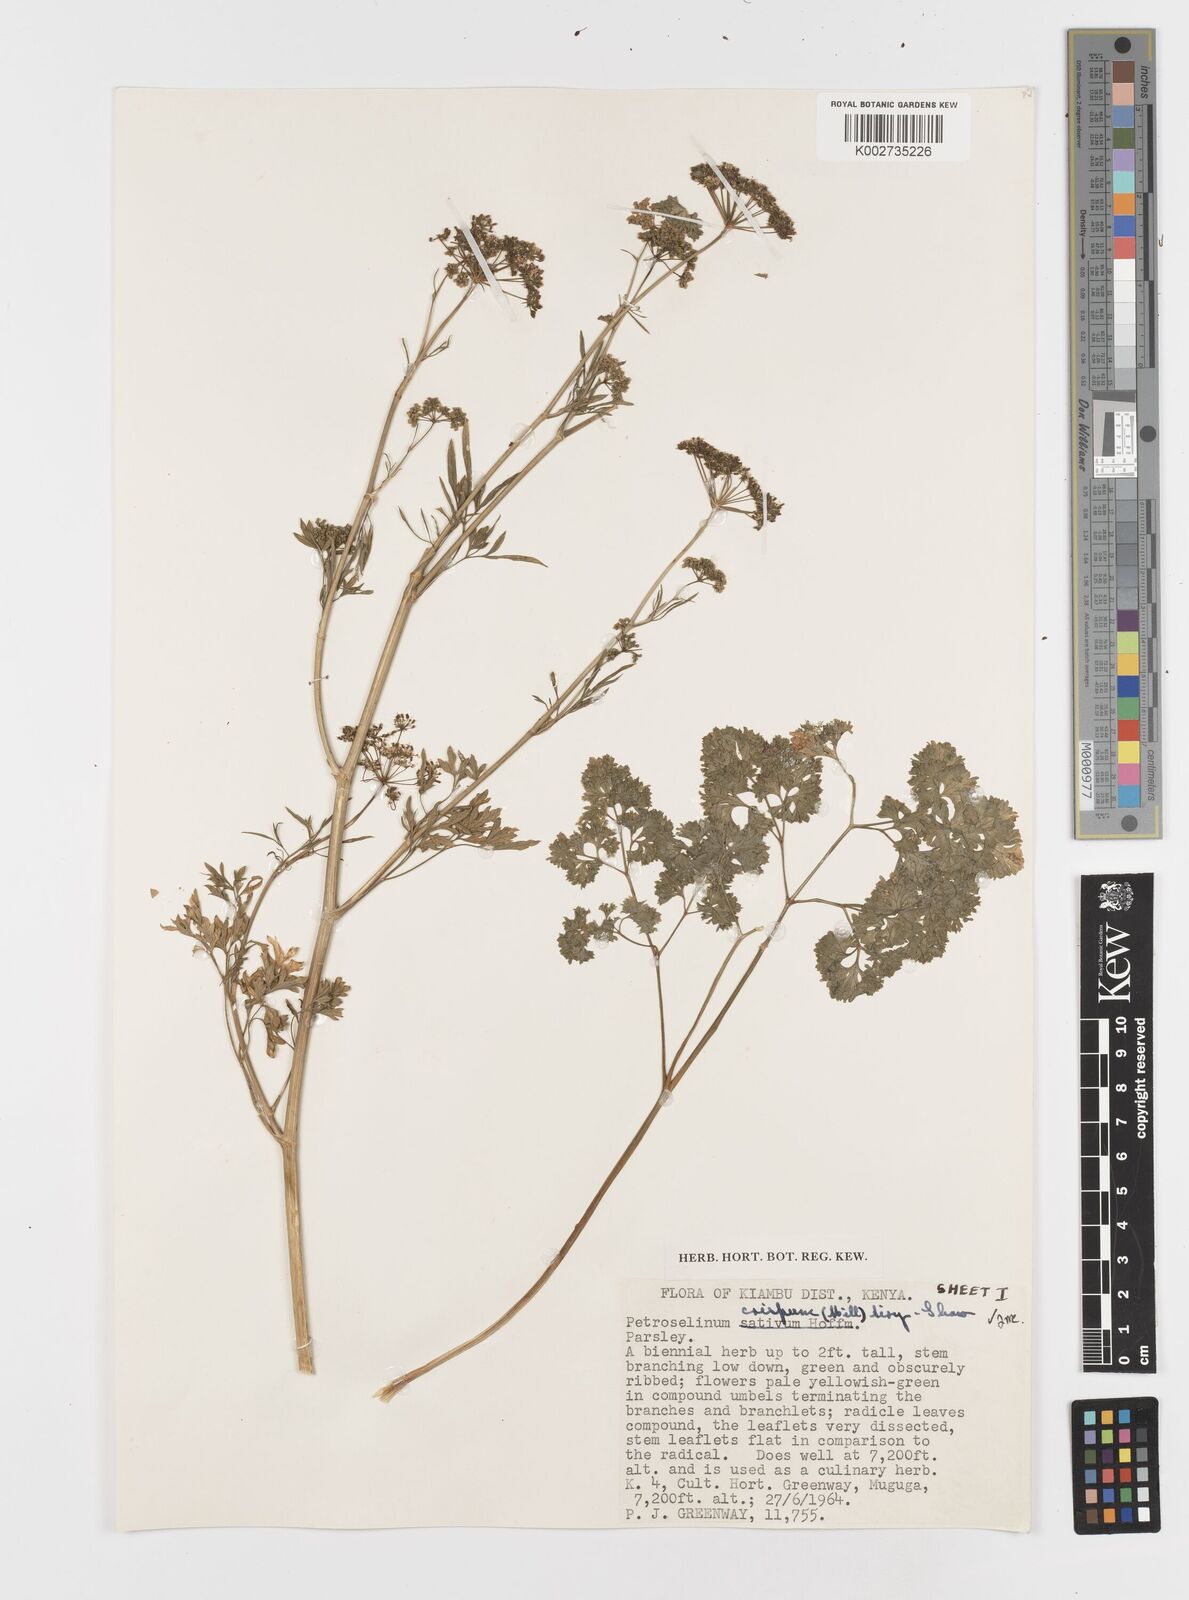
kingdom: Plantae
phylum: Tracheophyta
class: Magnoliopsida
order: Apiales
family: Apiaceae
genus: Petroselinum
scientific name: Petroselinum
